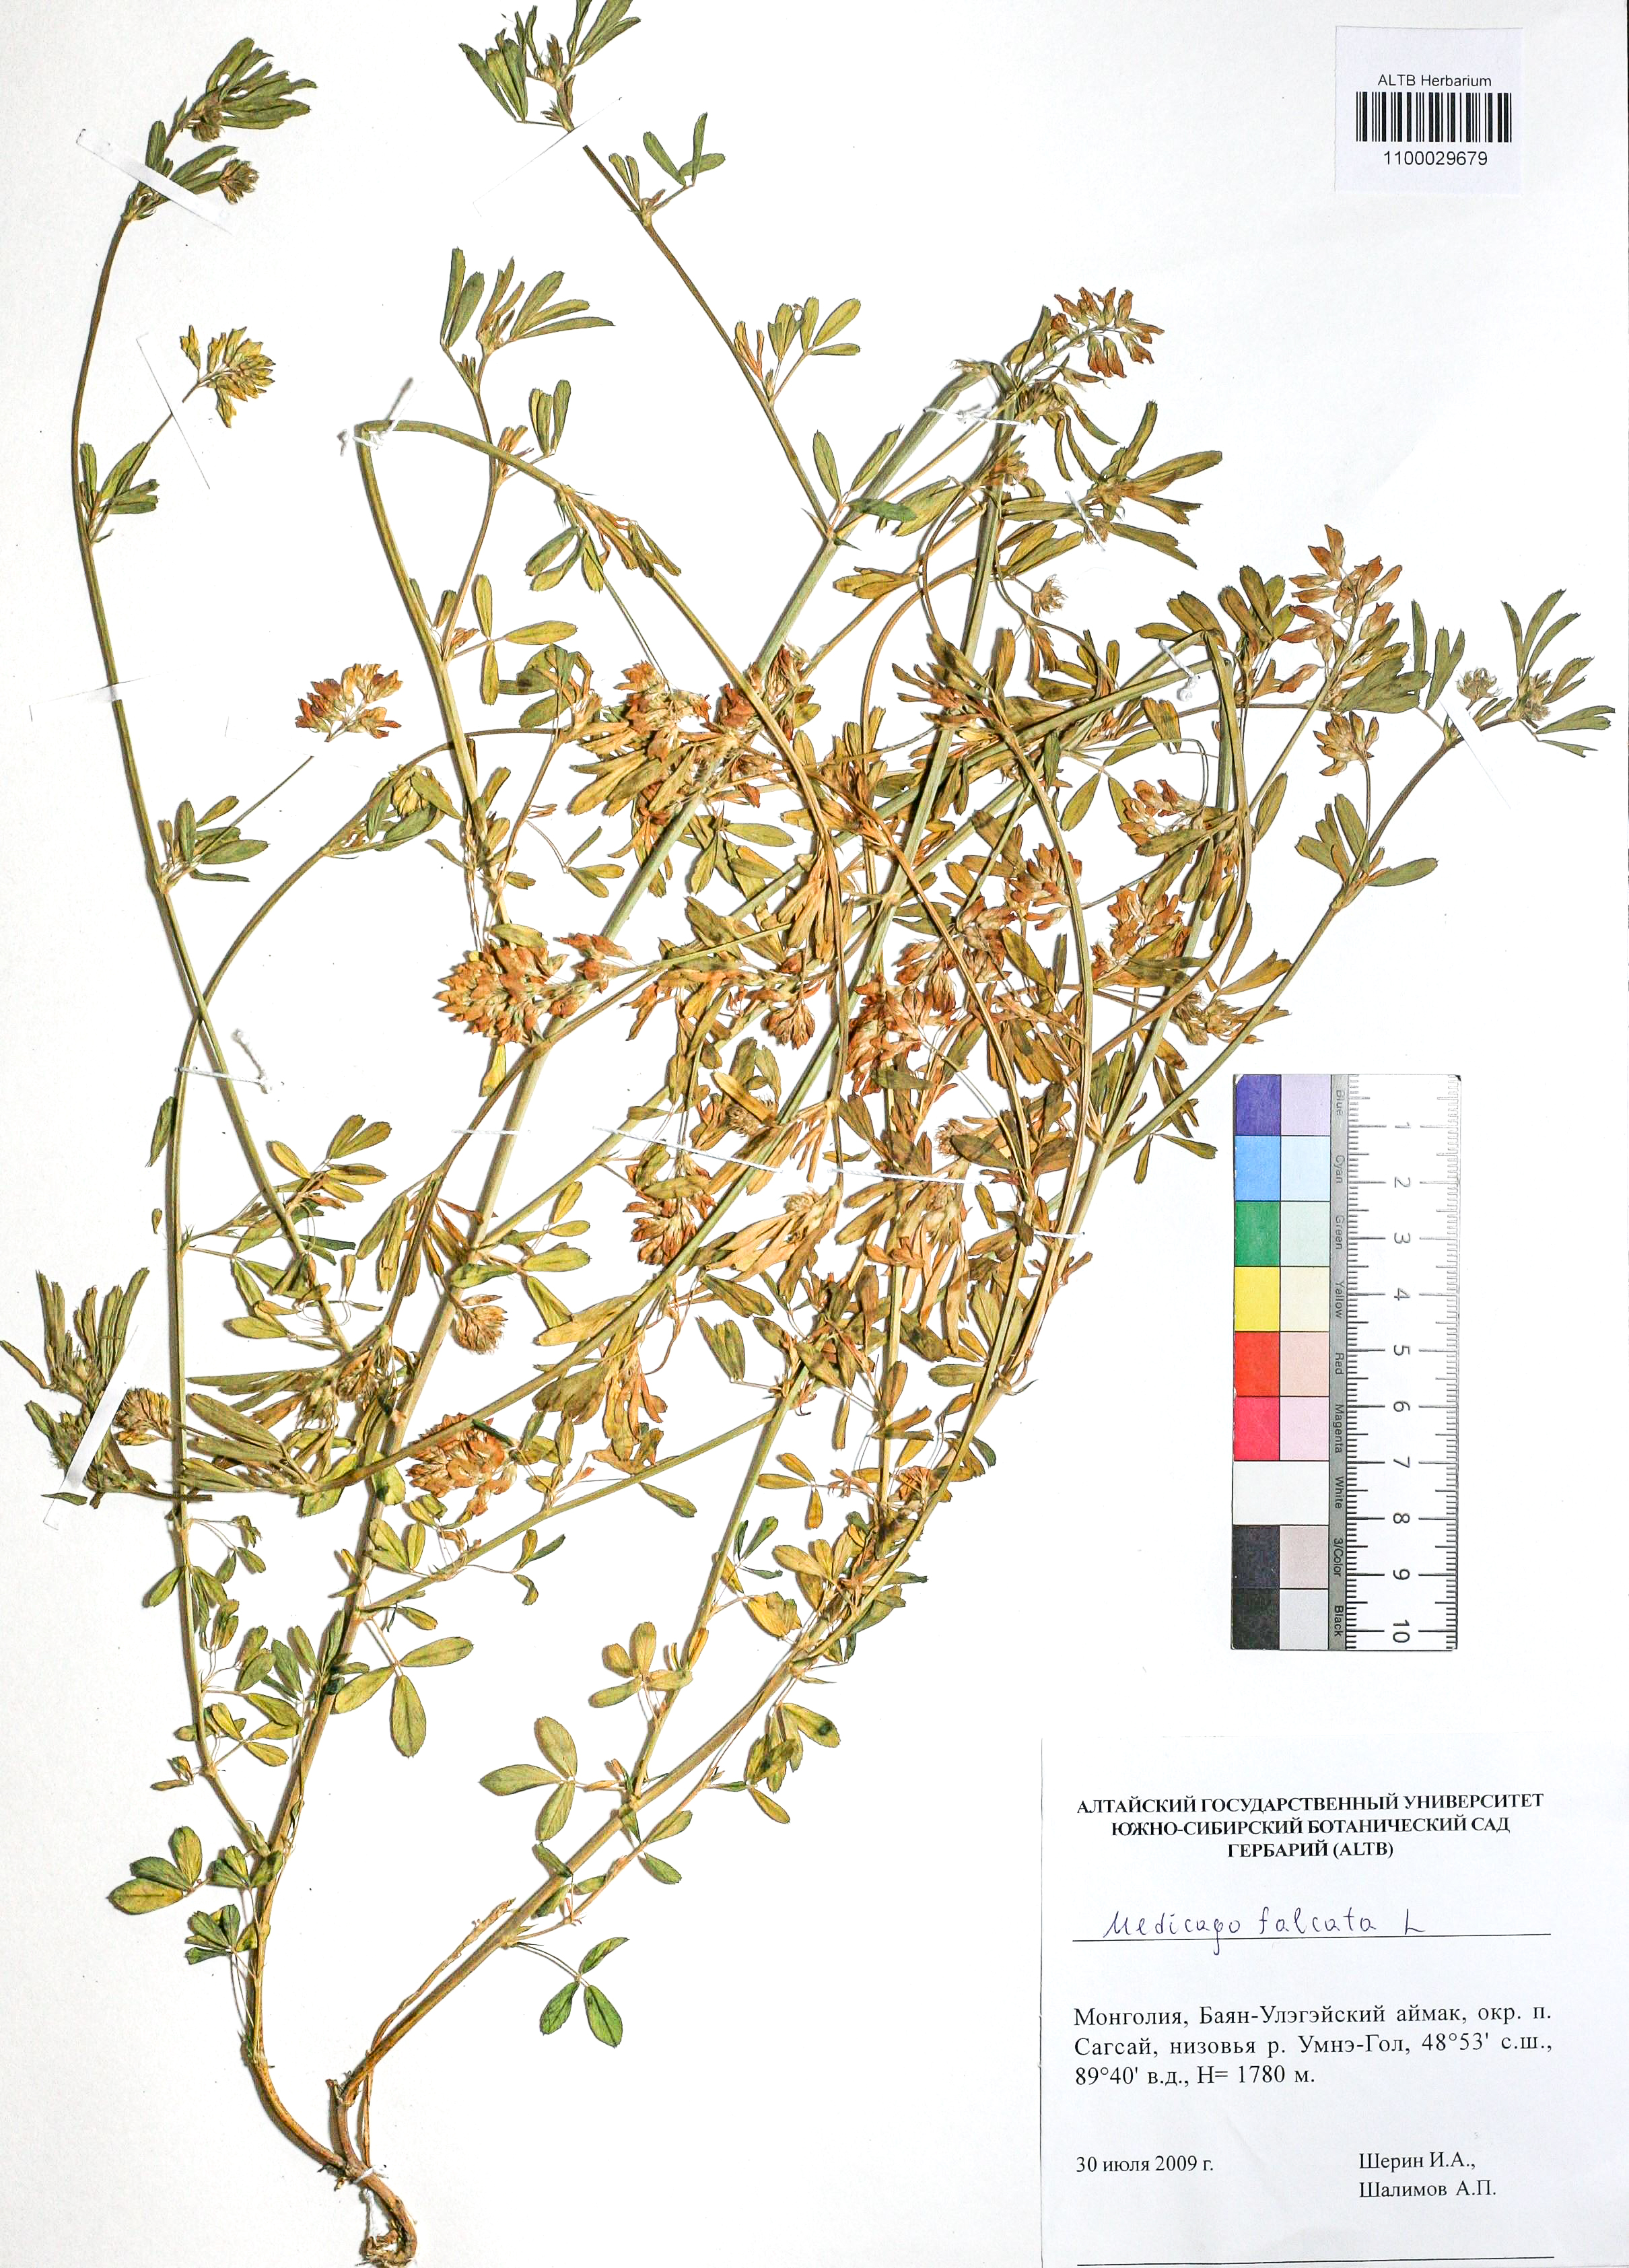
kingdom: Plantae
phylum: Tracheophyta
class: Magnoliopsida
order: Fabales
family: Fabaceae
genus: Medicago
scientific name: Medicago falcata
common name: Sickle medick
